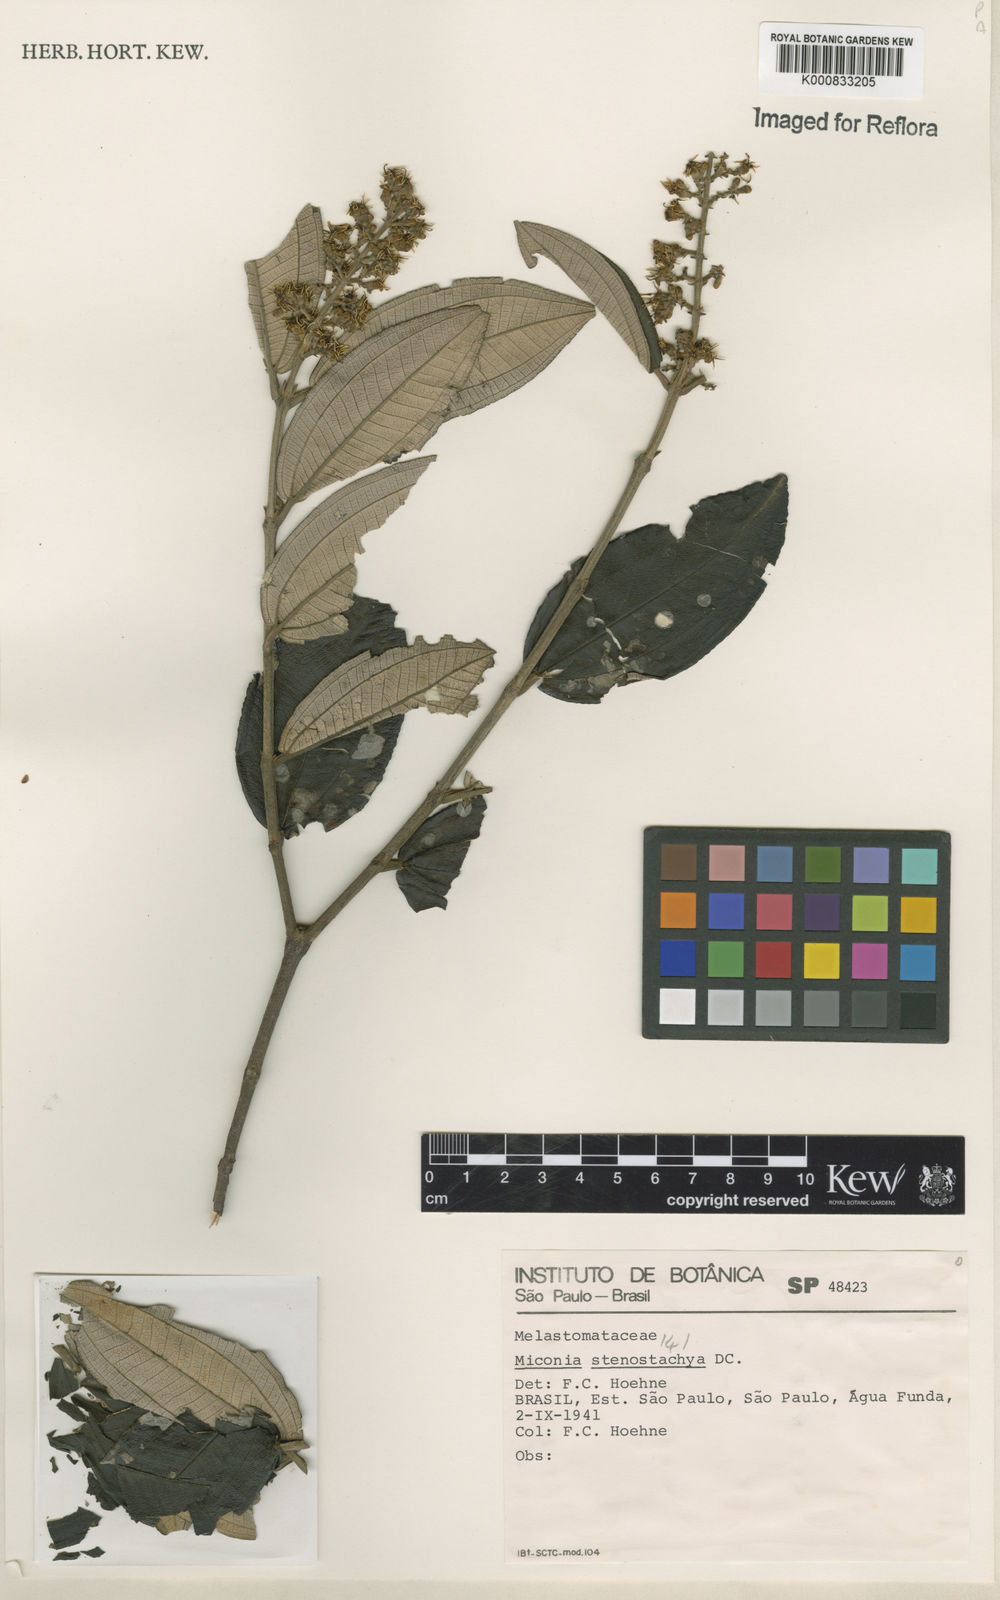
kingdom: Plantae
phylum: Tracheophyta
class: Magnoliopsida
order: Myrtales
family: Melastomataceae
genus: Miconia
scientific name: Miconia stenostachya
